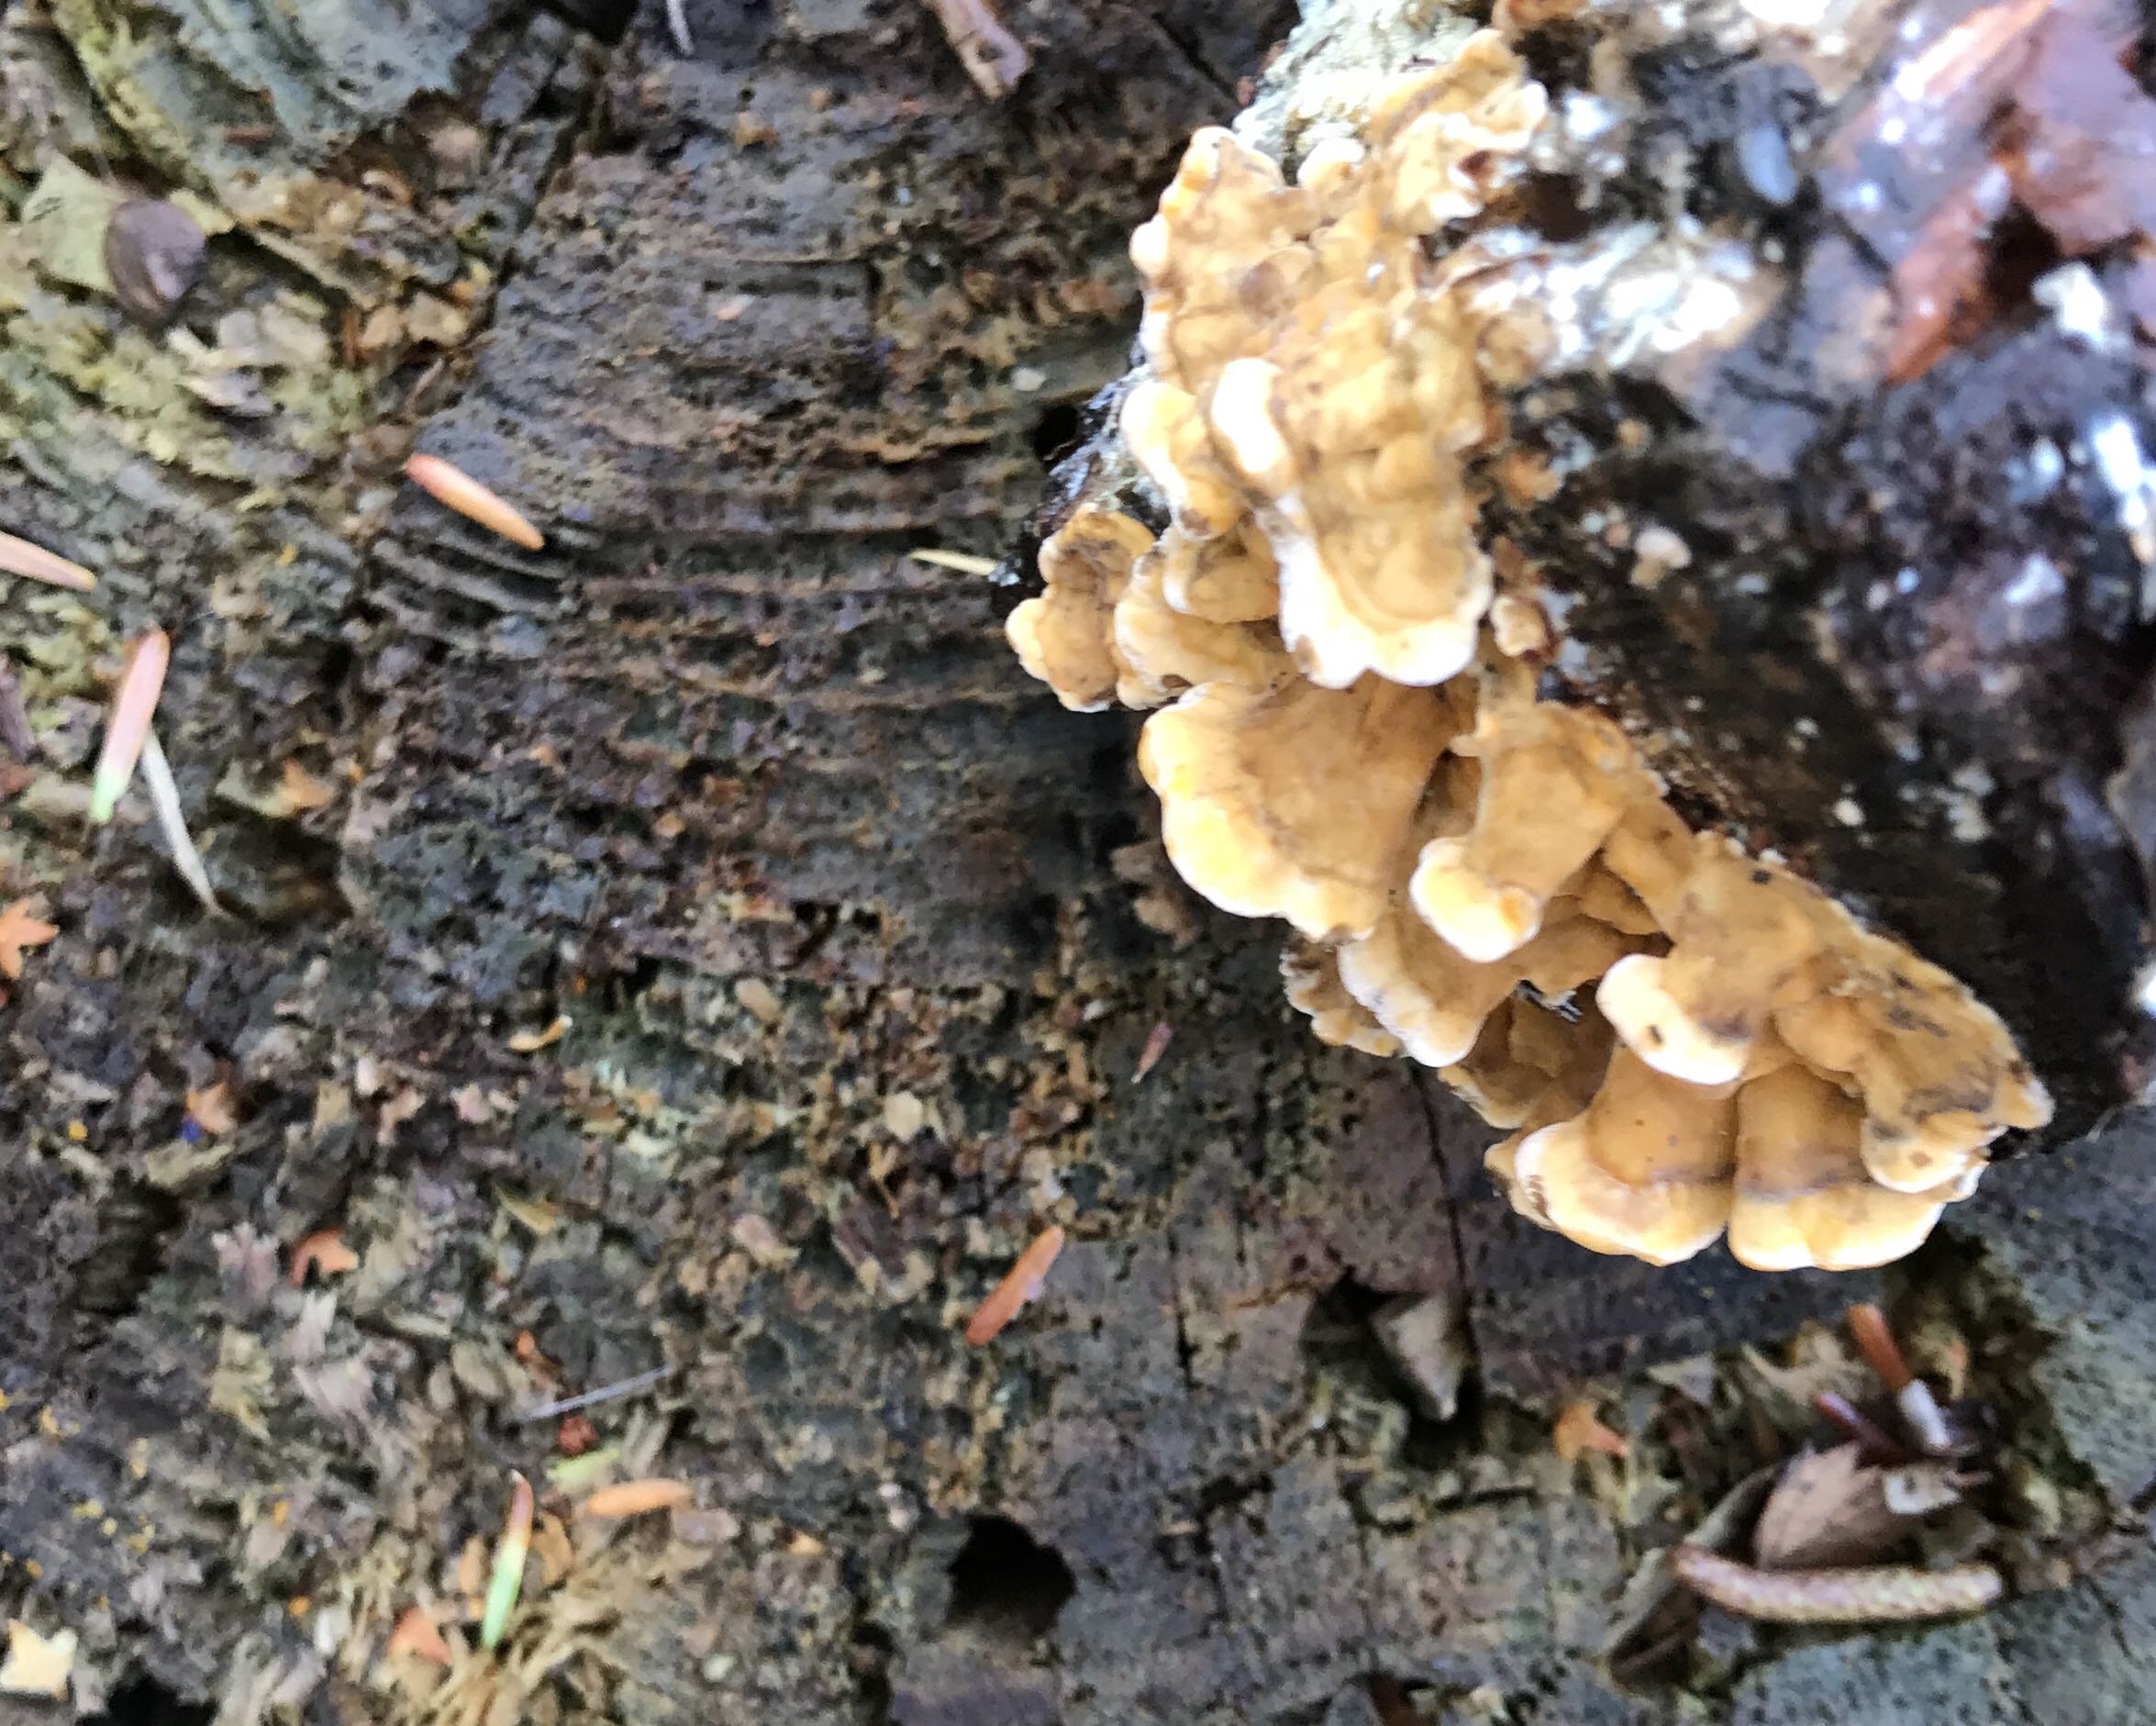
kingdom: Fungi
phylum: Basidiomycota
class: Agaricomycetes
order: Russulales
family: Stereaceae
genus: Stereum
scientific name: Stereum hirsutum
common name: håret lædersvamp
